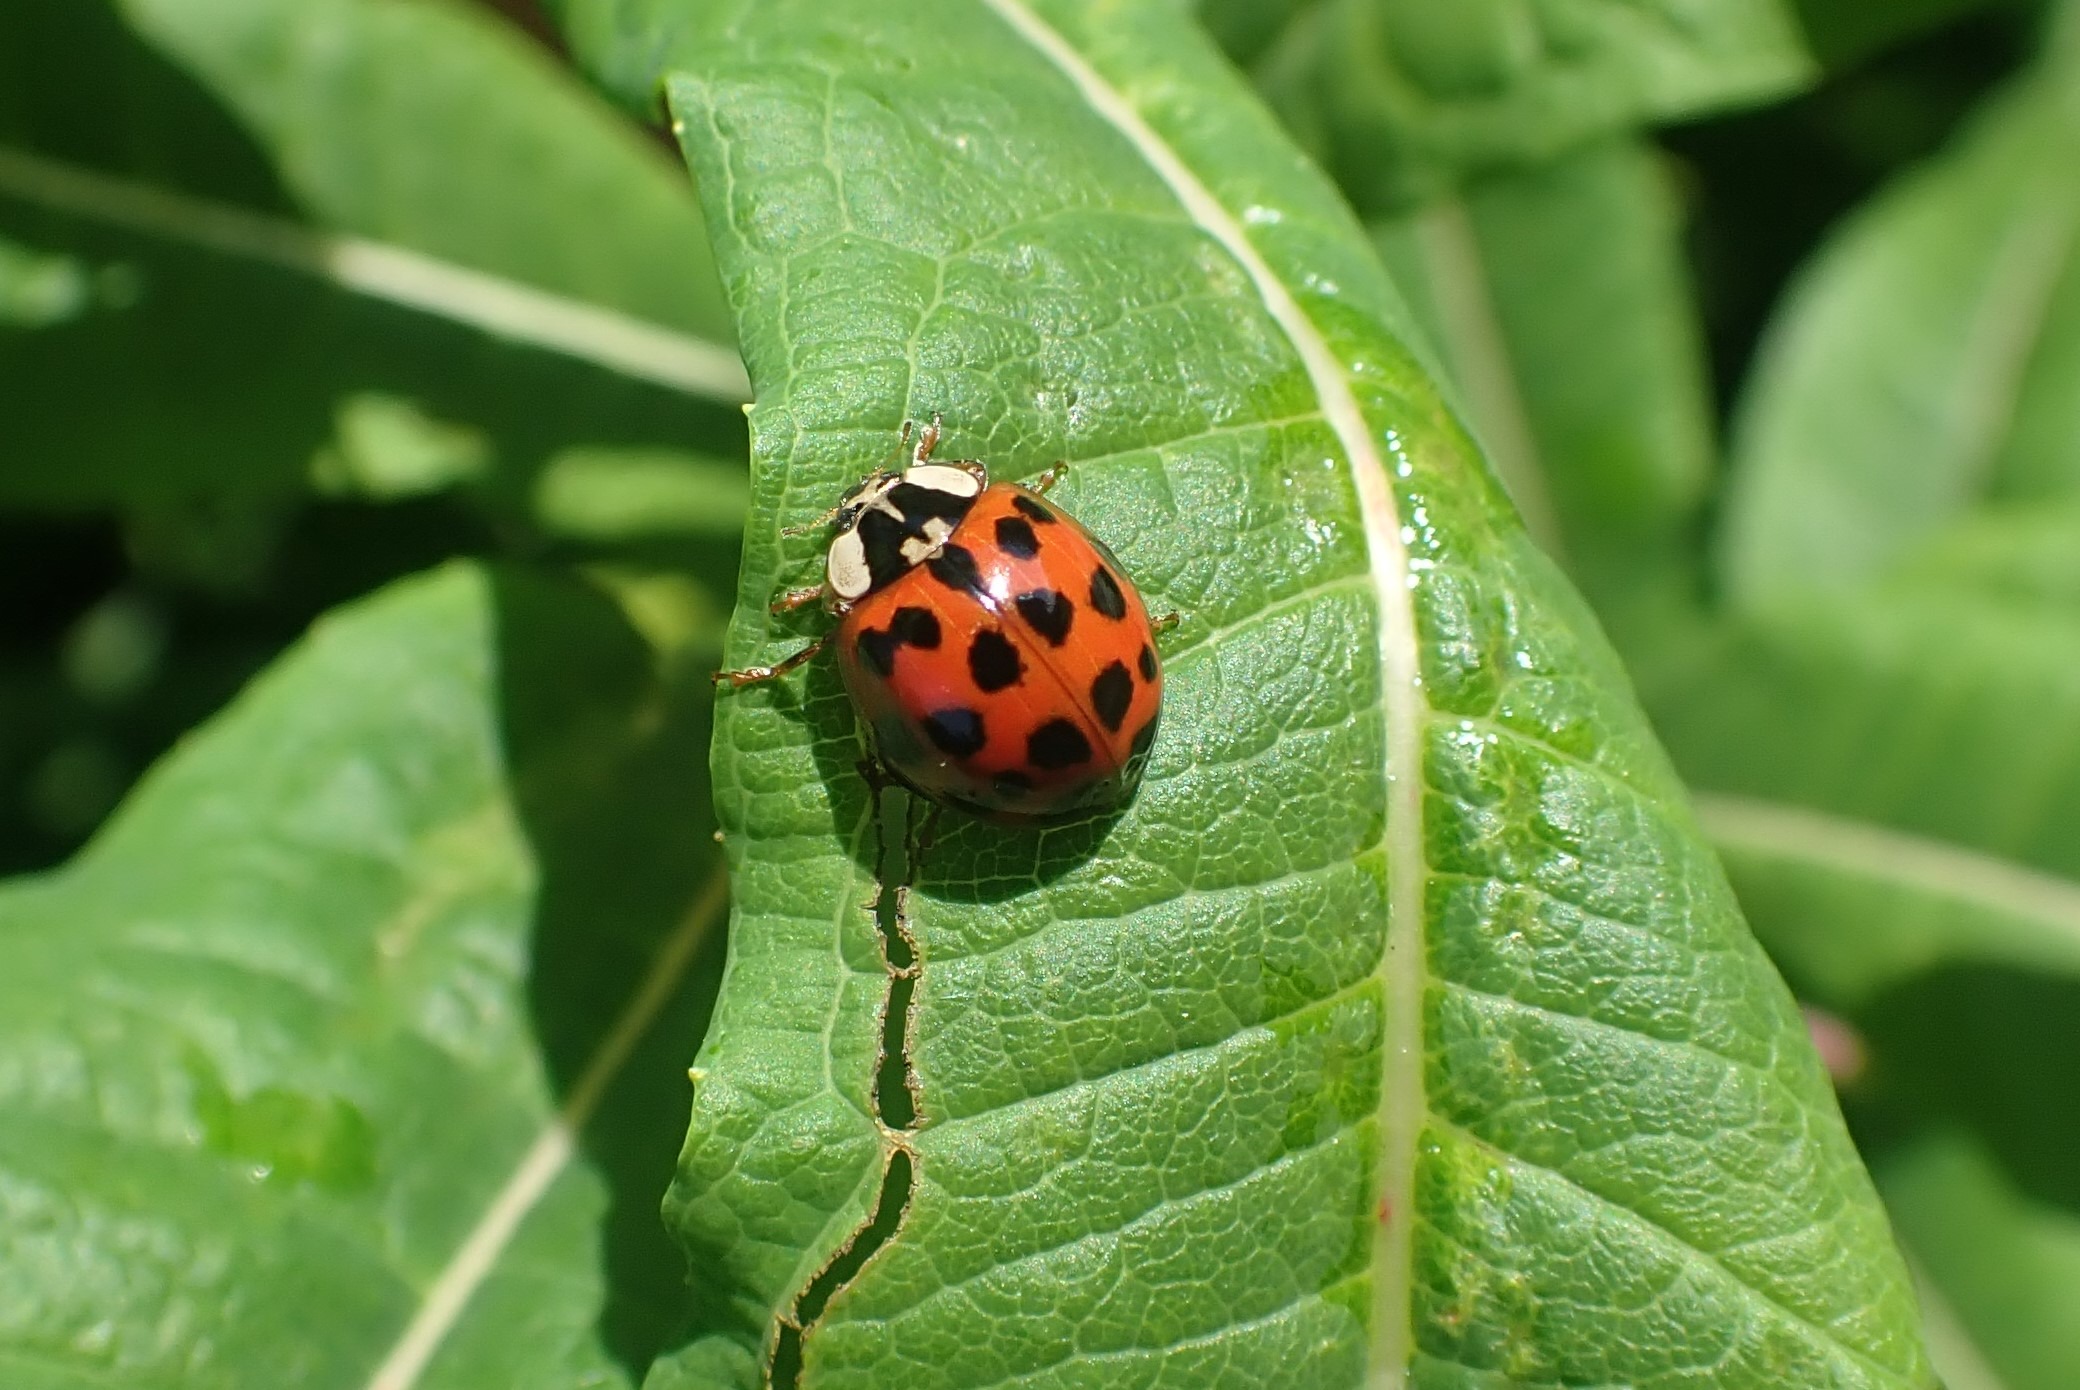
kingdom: Animalia
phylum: Arthropoda
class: Insecta
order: Coleoptera
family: Coccinellidae
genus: Harmonia
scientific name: Harmonia axyridis
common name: Harlekinmariehøne
